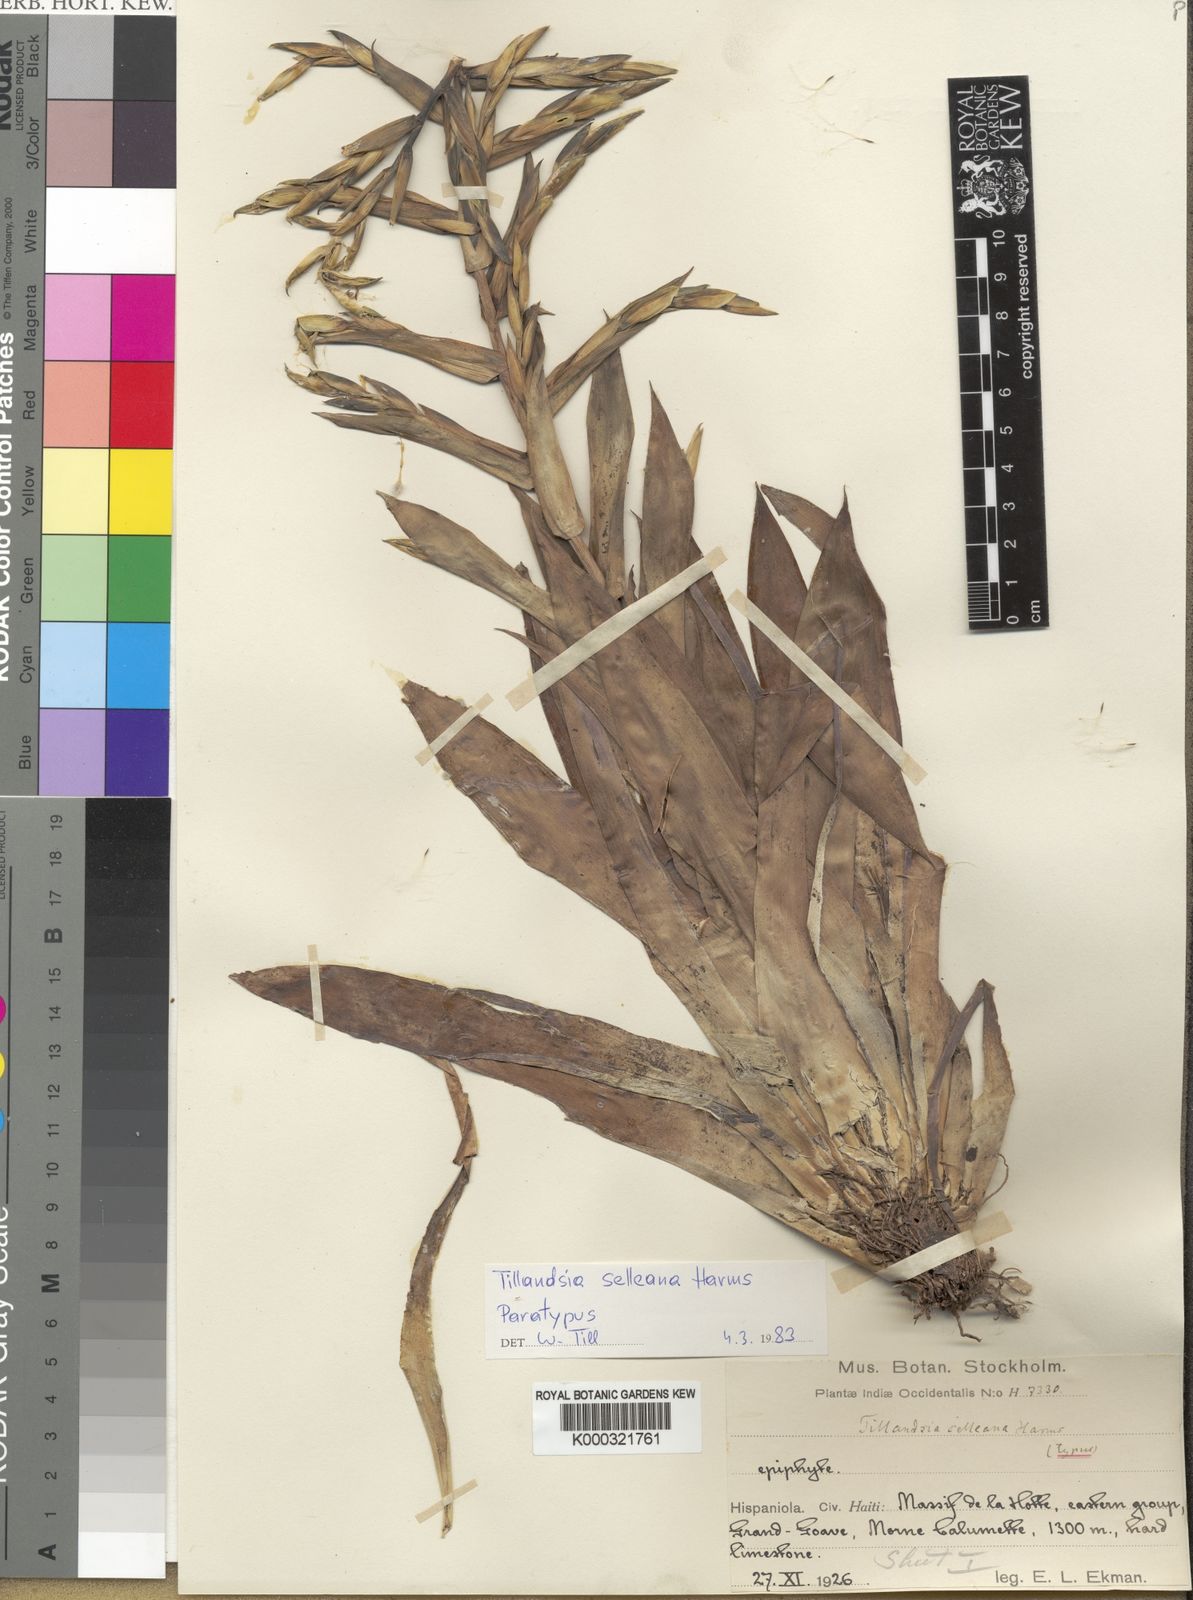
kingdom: Plantae
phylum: Tracheophyta
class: Liliopsida
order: Poales
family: Bromeliaceae
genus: Tillandsia
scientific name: Tillandsia selleana
